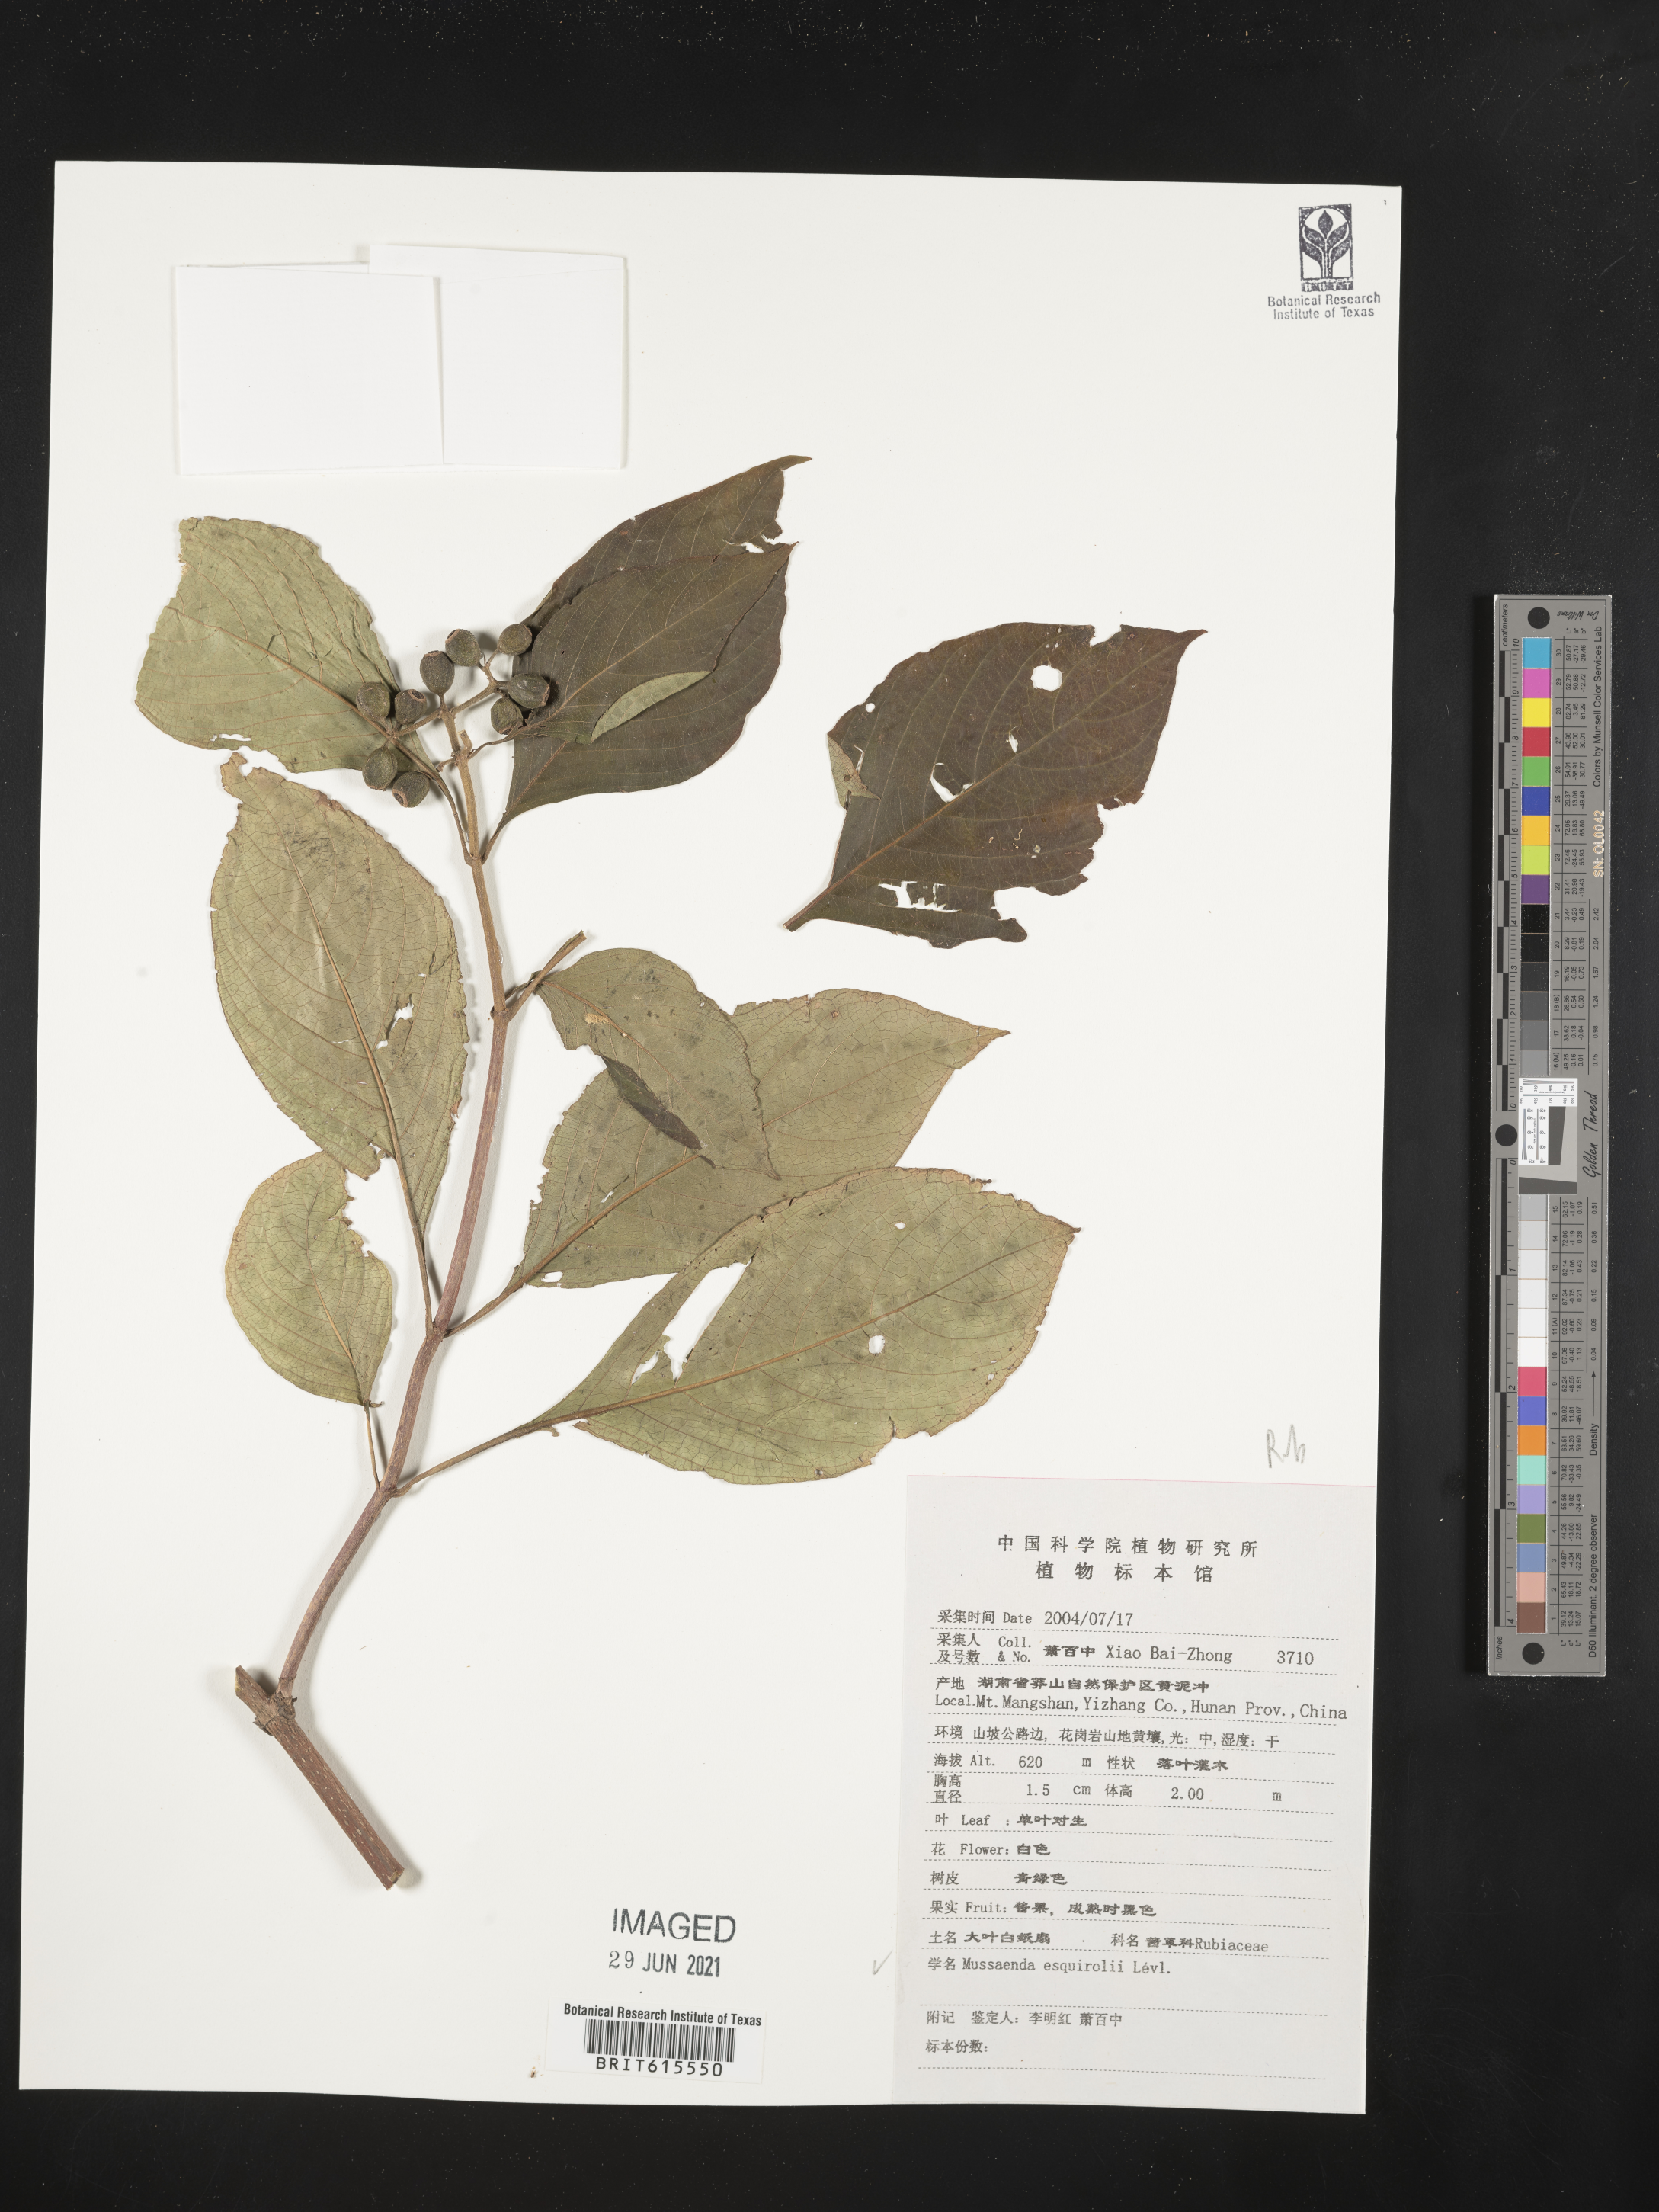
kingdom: Plantae
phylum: Tracheophyta
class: Magnoliopsida
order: Gentianales
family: Rubiaceae
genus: Mussaenda
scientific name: Mussaenda shikokiana
